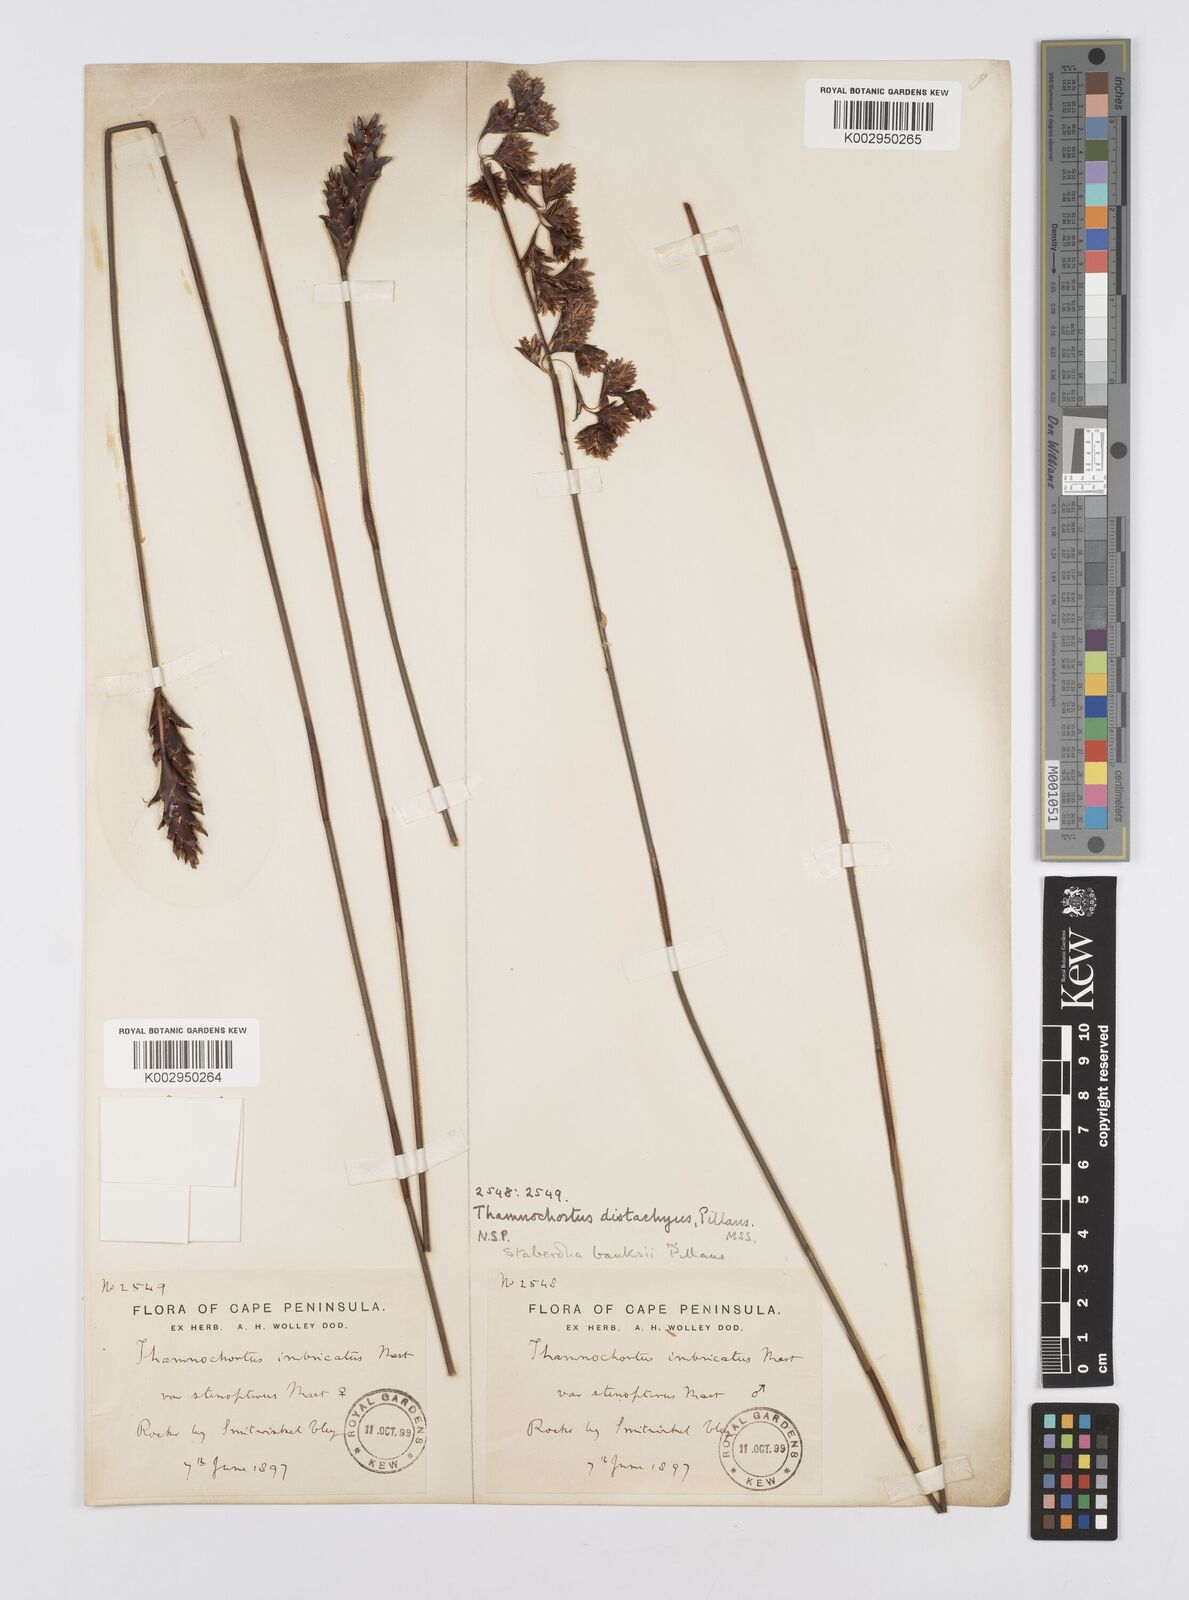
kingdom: Plantae
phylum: Tracheophyta
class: Liliopsida
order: Poales
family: Restionaceae
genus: Staberoha
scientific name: Staberoha banksii
